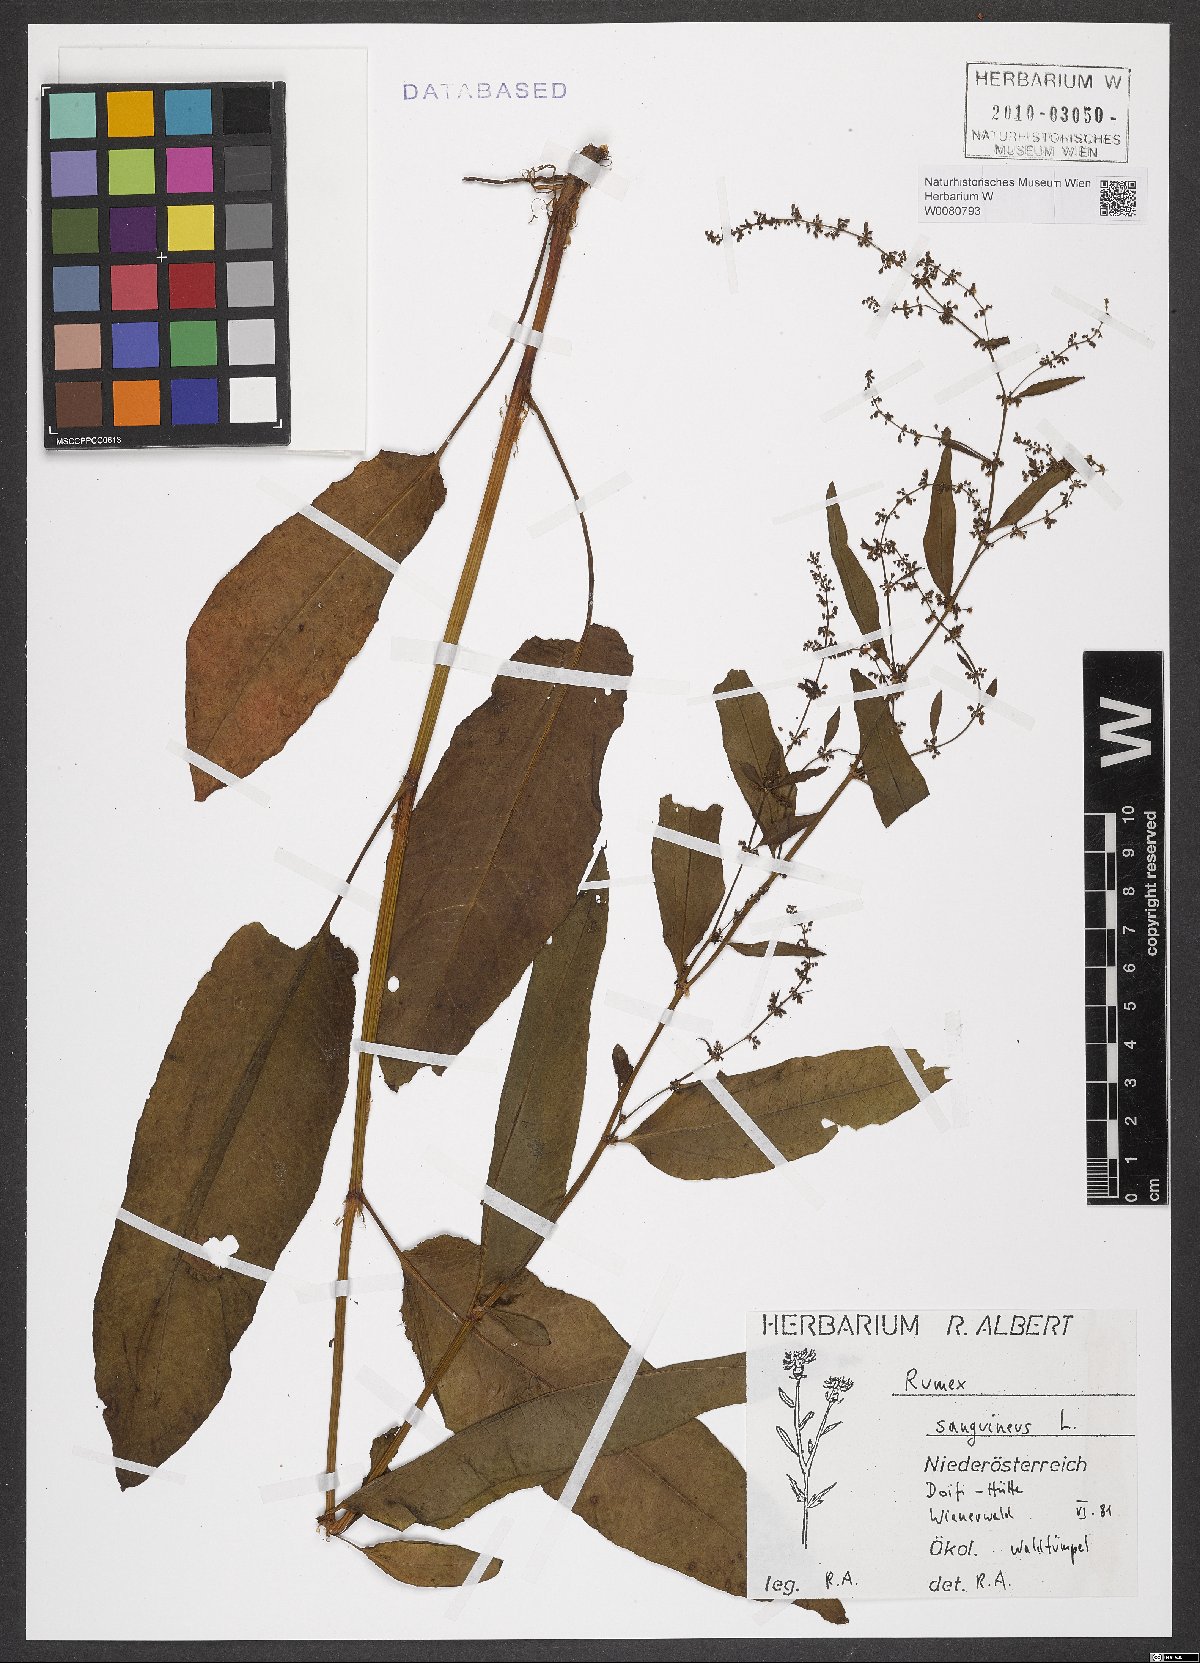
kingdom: Plantae
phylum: Tracheophyta
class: Magnoliopsida
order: Caryophyllales
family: Polygonaceae
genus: Rumex
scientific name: Rumex sanguineus
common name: Wood dock
